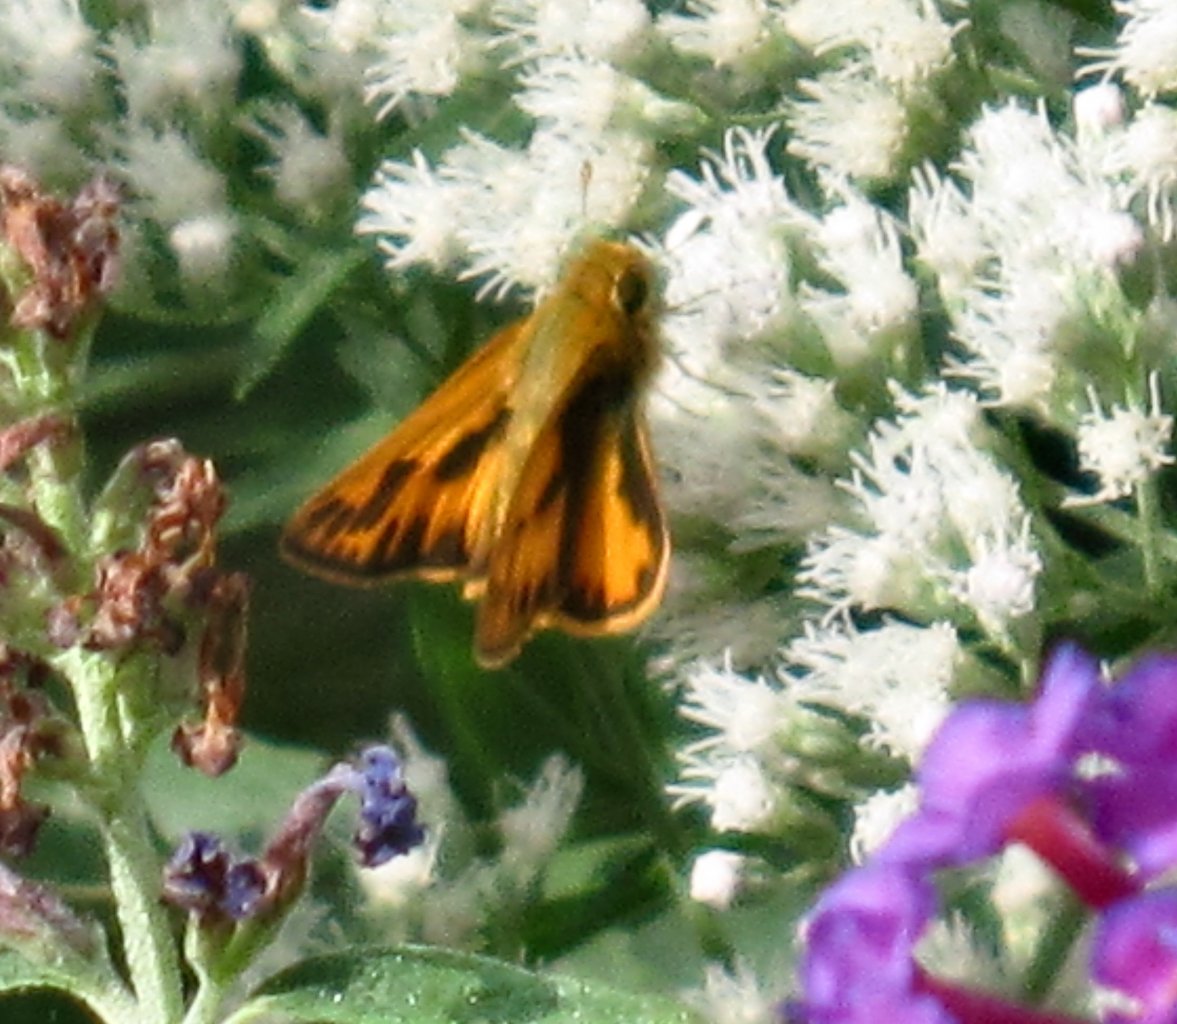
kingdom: Animalia
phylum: Arthropoda
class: Insecta
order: Lepidoptera
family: Hesperiidae
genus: Hylephila
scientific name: Hylephila phyleus
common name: Fiery Skipper
